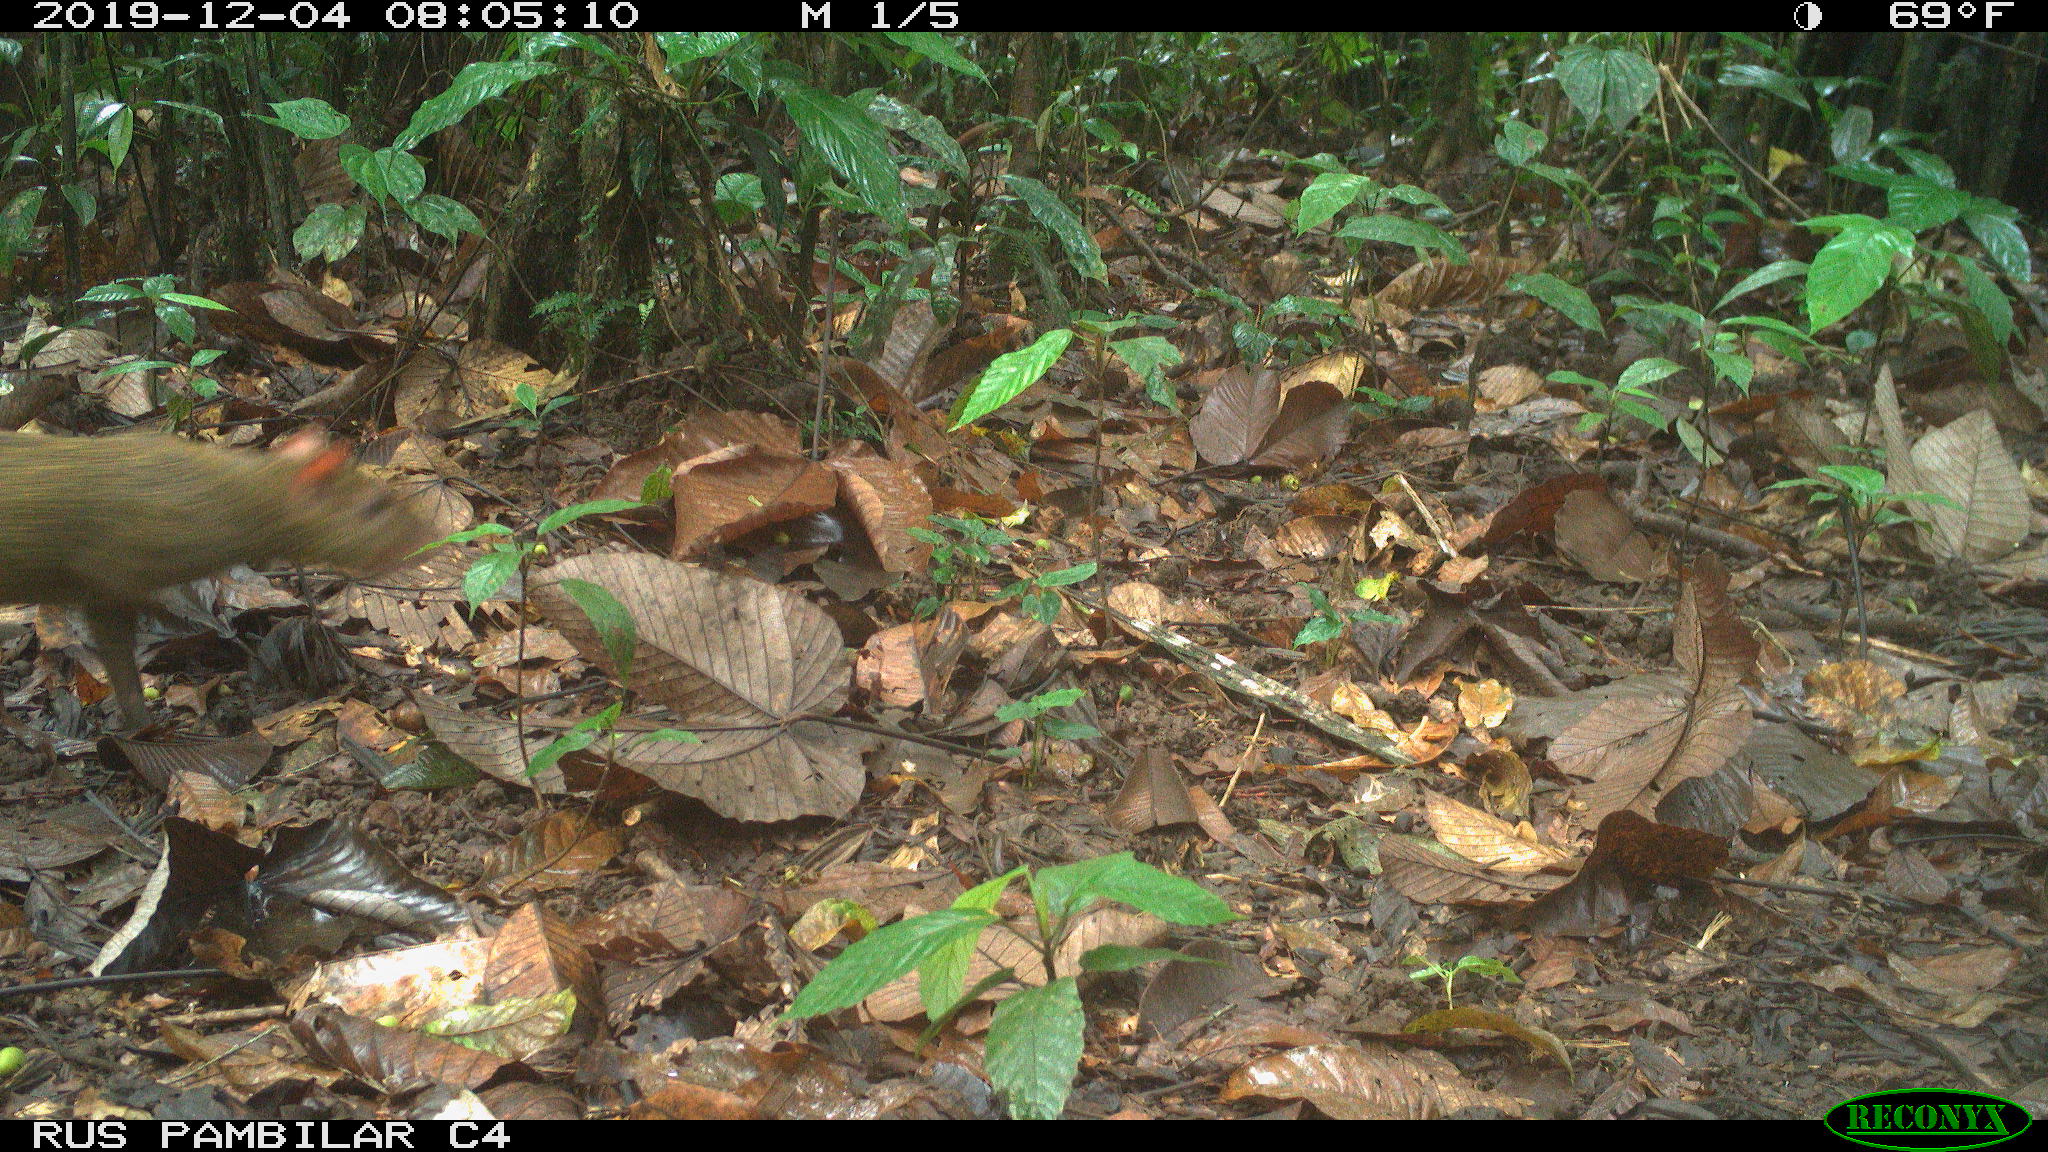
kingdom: Animalia
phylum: Chordata
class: Mammalia
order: Rodentia
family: Dasyproctidae
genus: Dasyprocta
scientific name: Dasyprocta punctata
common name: Central american agouti
